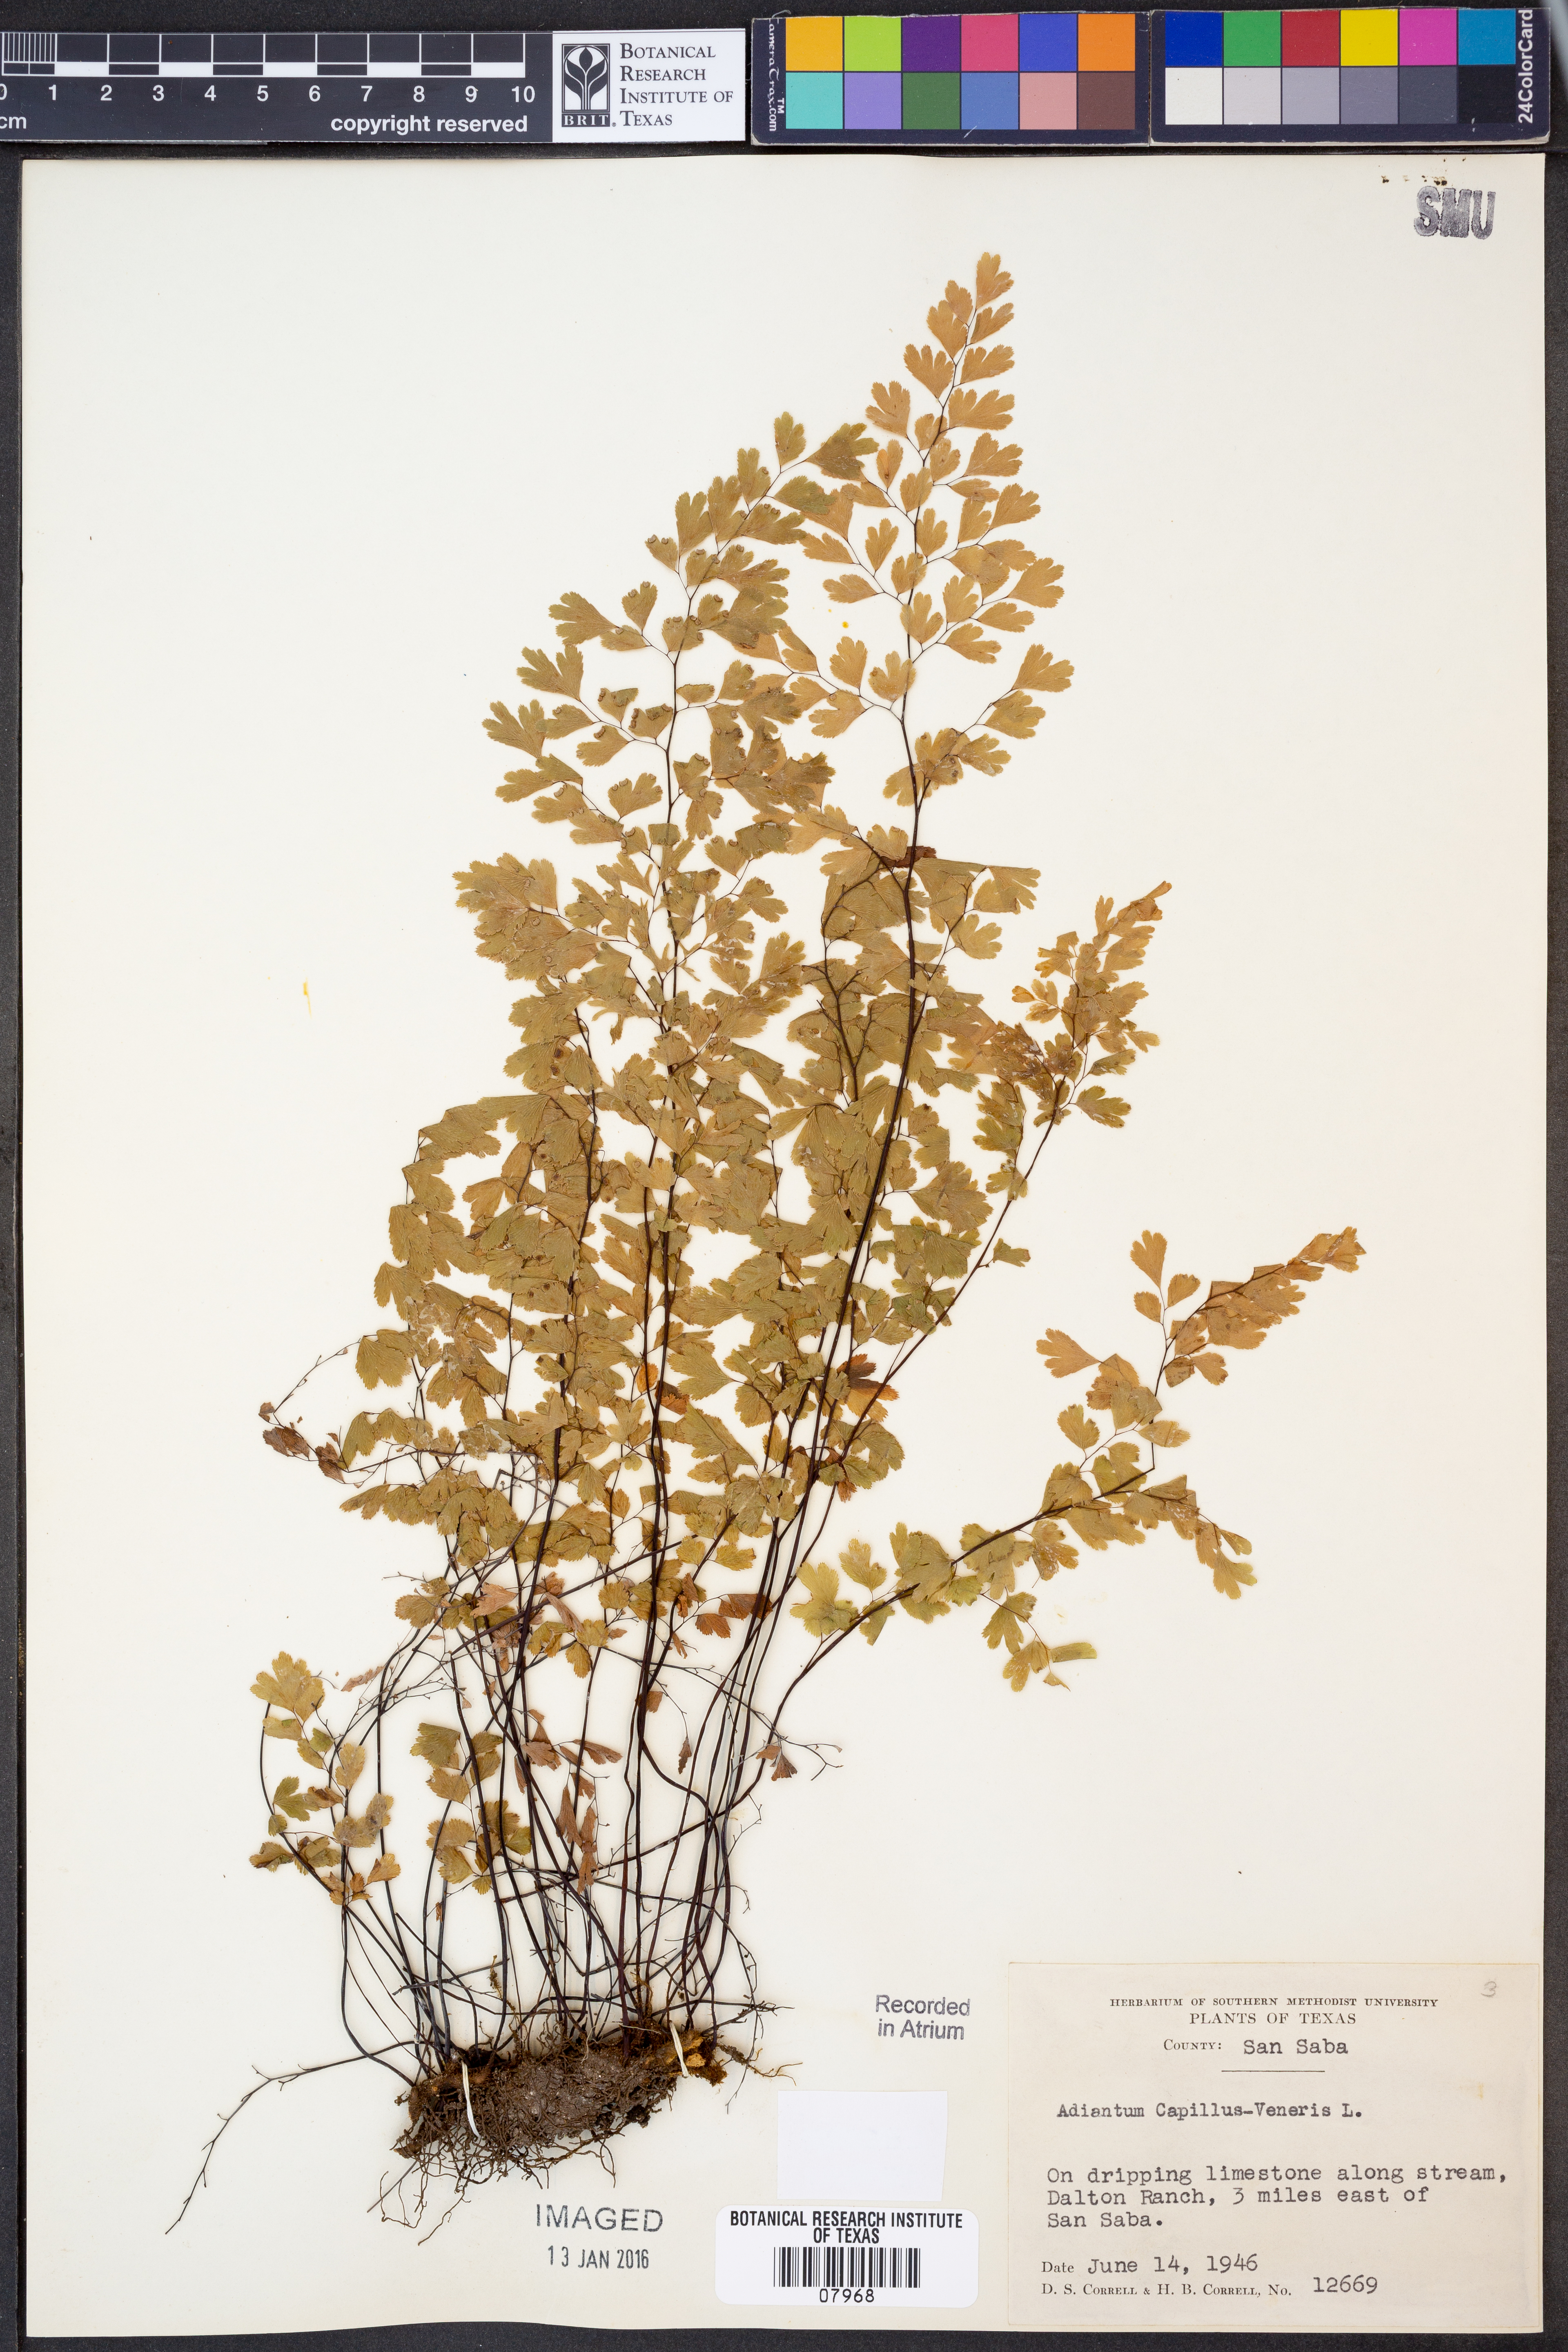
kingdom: Plantae
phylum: Tracheophyta
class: Polypodiopsida
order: Polypodiales
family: Pteridaceae
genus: Adiantum
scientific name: Adiantum capillus-veneris
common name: Maidenhair fern
